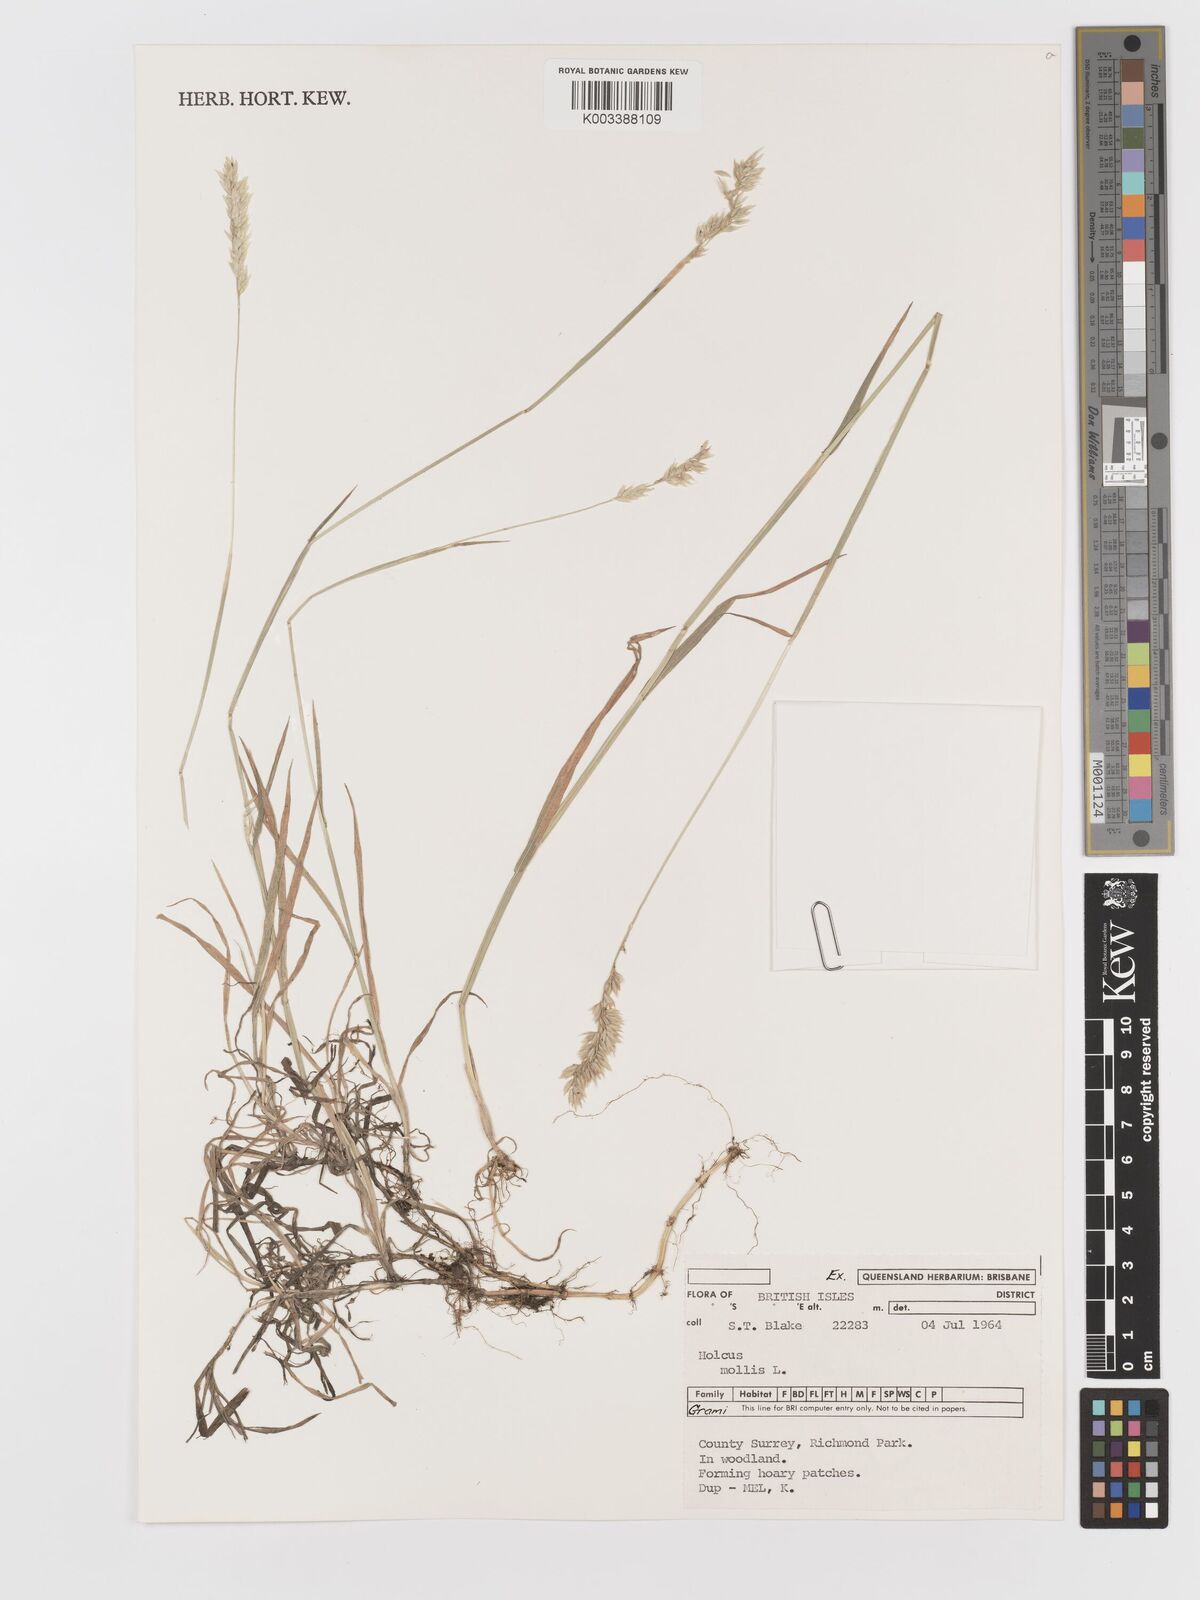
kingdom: Plantae
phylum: Tracheophyta
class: Liliopsida
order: Poales
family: Poaceae
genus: Holcus
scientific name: Holcus mollis
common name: Creeping velvetgrass
